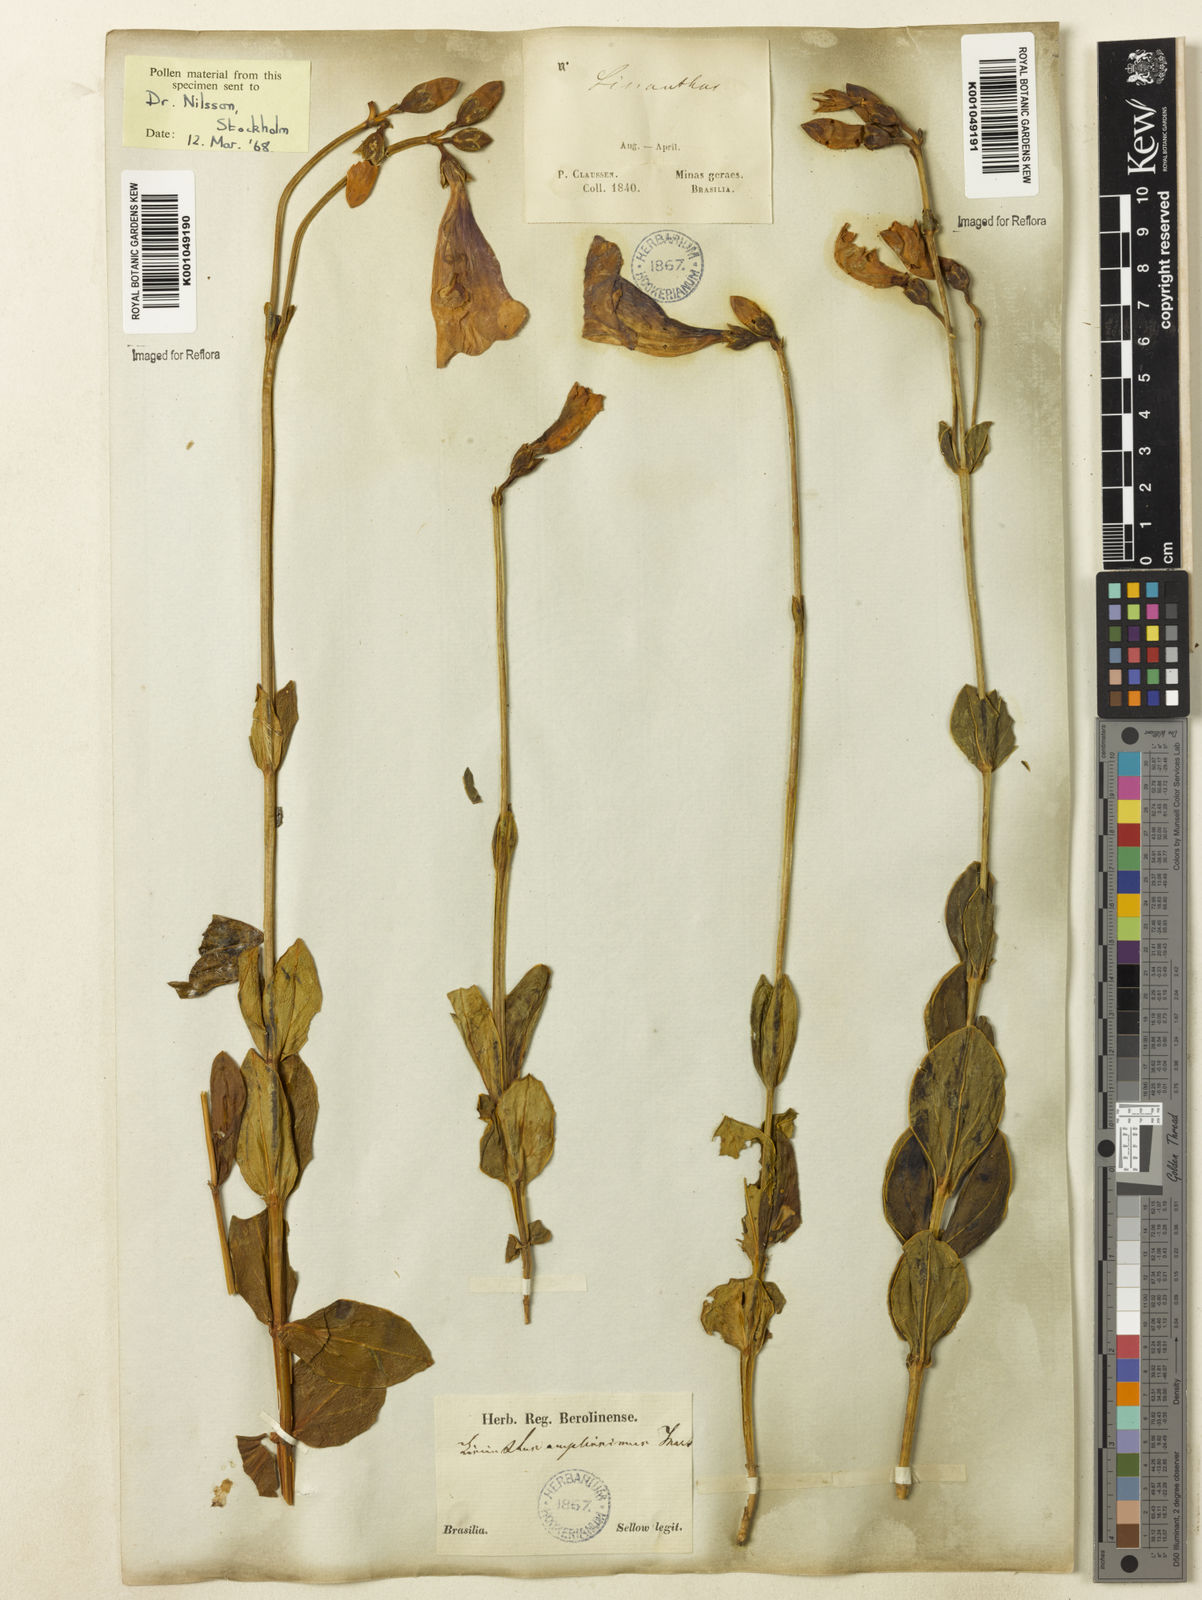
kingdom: Plantae
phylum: Tracheophyta
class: Magnoliopsida
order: Gentianales
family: Gentianaceae
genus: Calolisianthus
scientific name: Calolisianthus amplissimus
